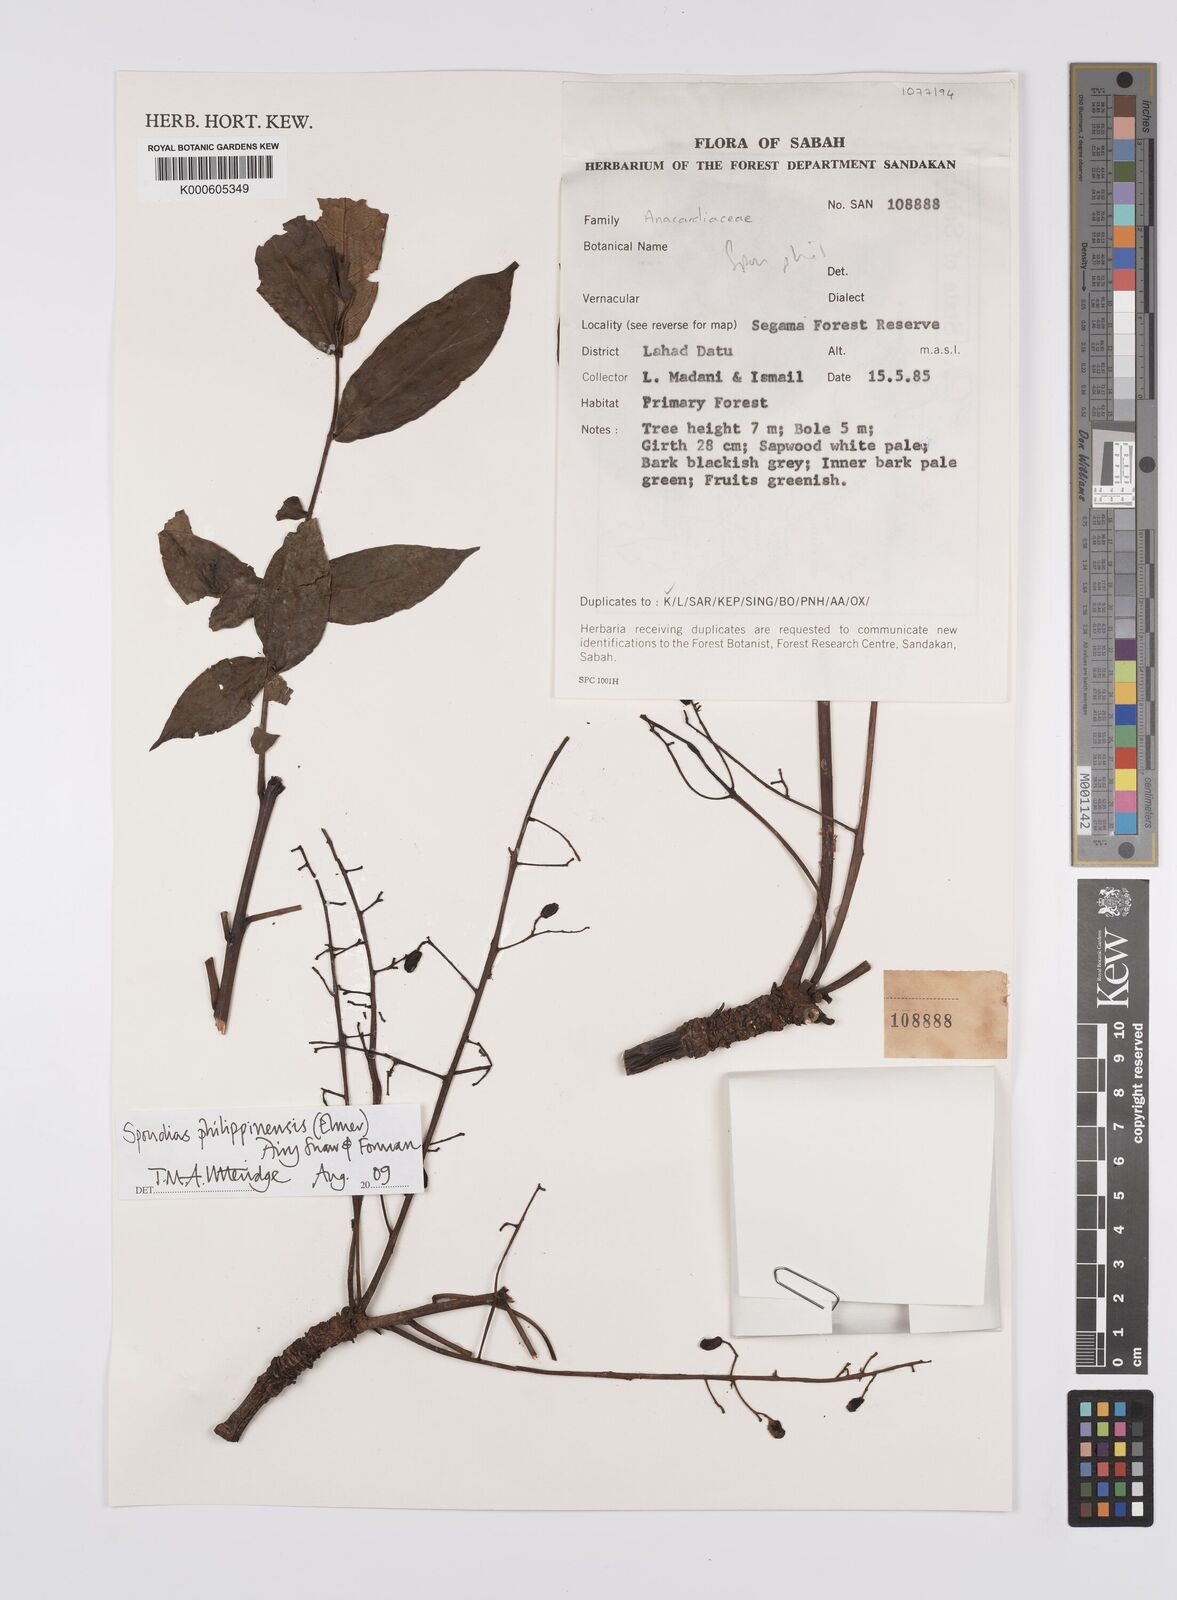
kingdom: Plantae
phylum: Tracheophyta
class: Magnoliopsida
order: Sapindales
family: Anacardiaceae
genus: Spondias
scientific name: Spondias philippinensis
